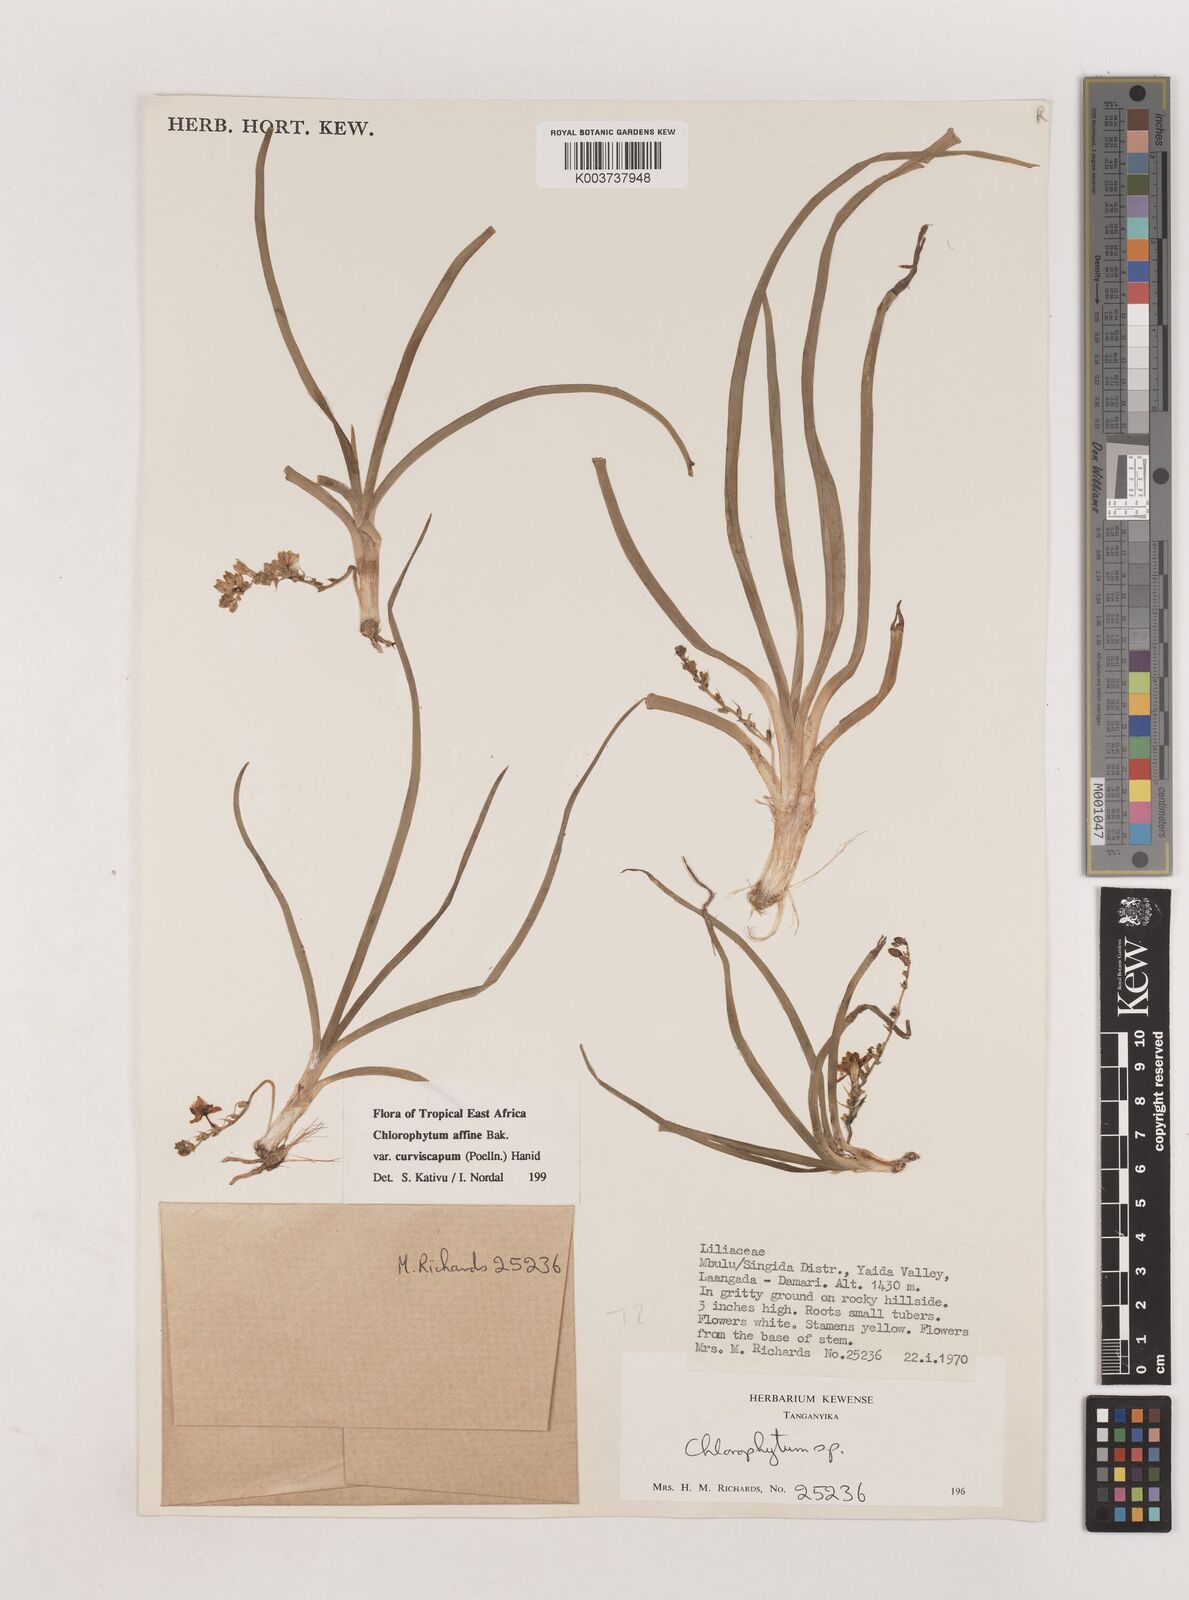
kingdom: Plantae
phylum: Tracheophyta
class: Liliopsida
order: Asparagales
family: Asparagaceae
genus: Chlorophytum
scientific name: Chlorophytum tordense
